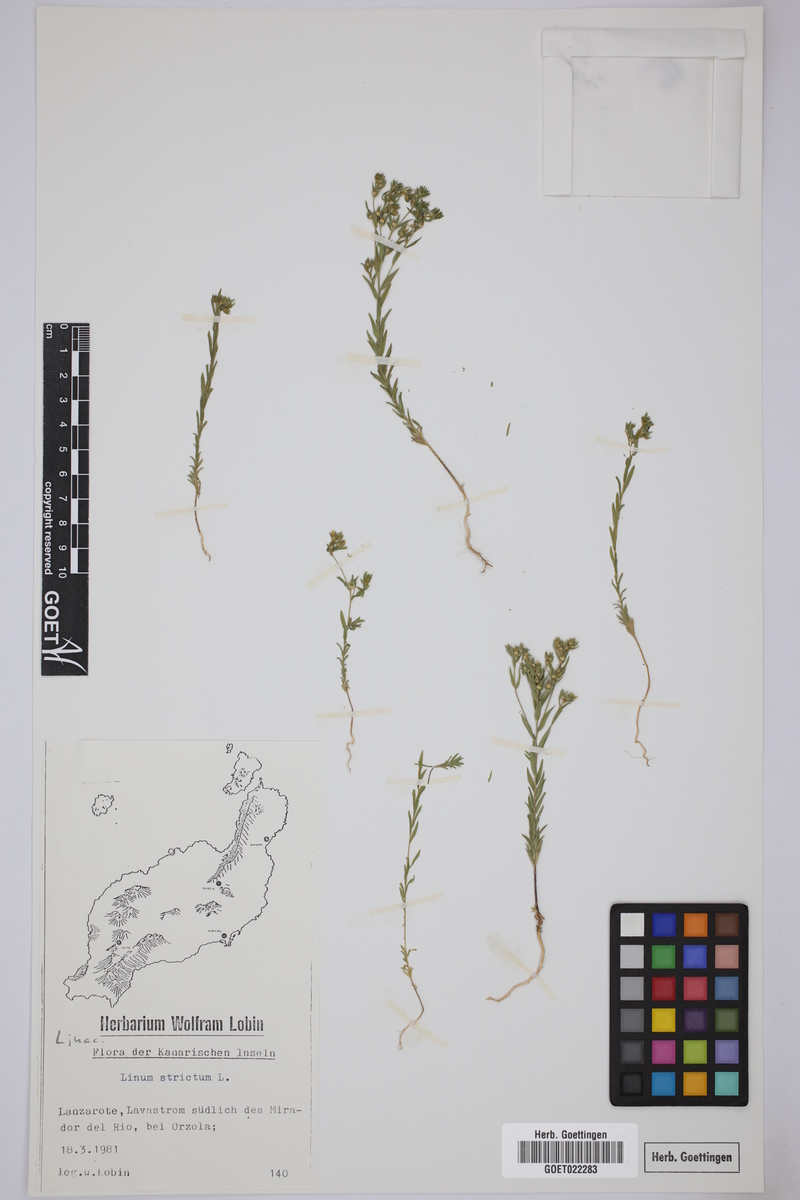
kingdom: Plantae
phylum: Tracheophyta
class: Magnoliopsida
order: Malpighiales
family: Linaceae
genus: Linum
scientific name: Linum strictum
